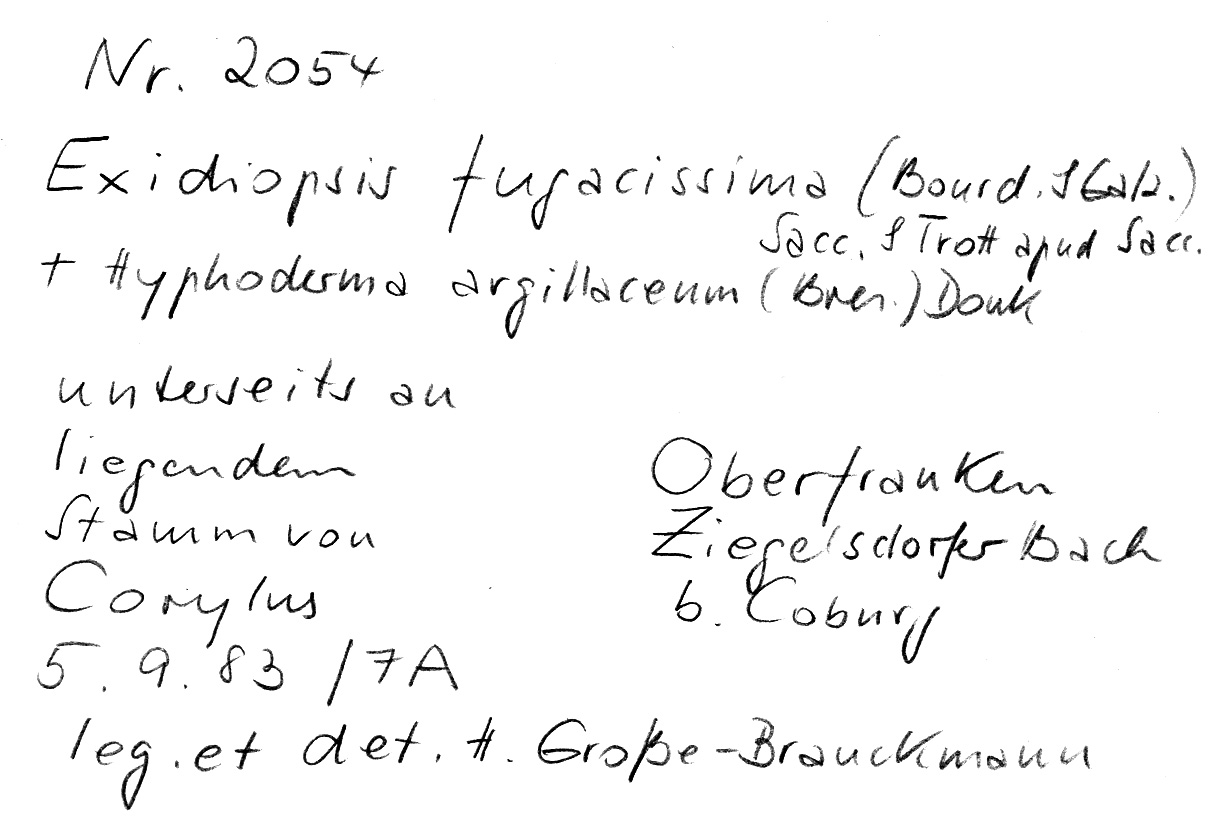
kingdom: Fungi
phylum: Basidiomycota
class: Agaricomycetes
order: Auriculariales
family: Hyaloriaceae
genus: Myxarium
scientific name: Myxarium fugacissimum
